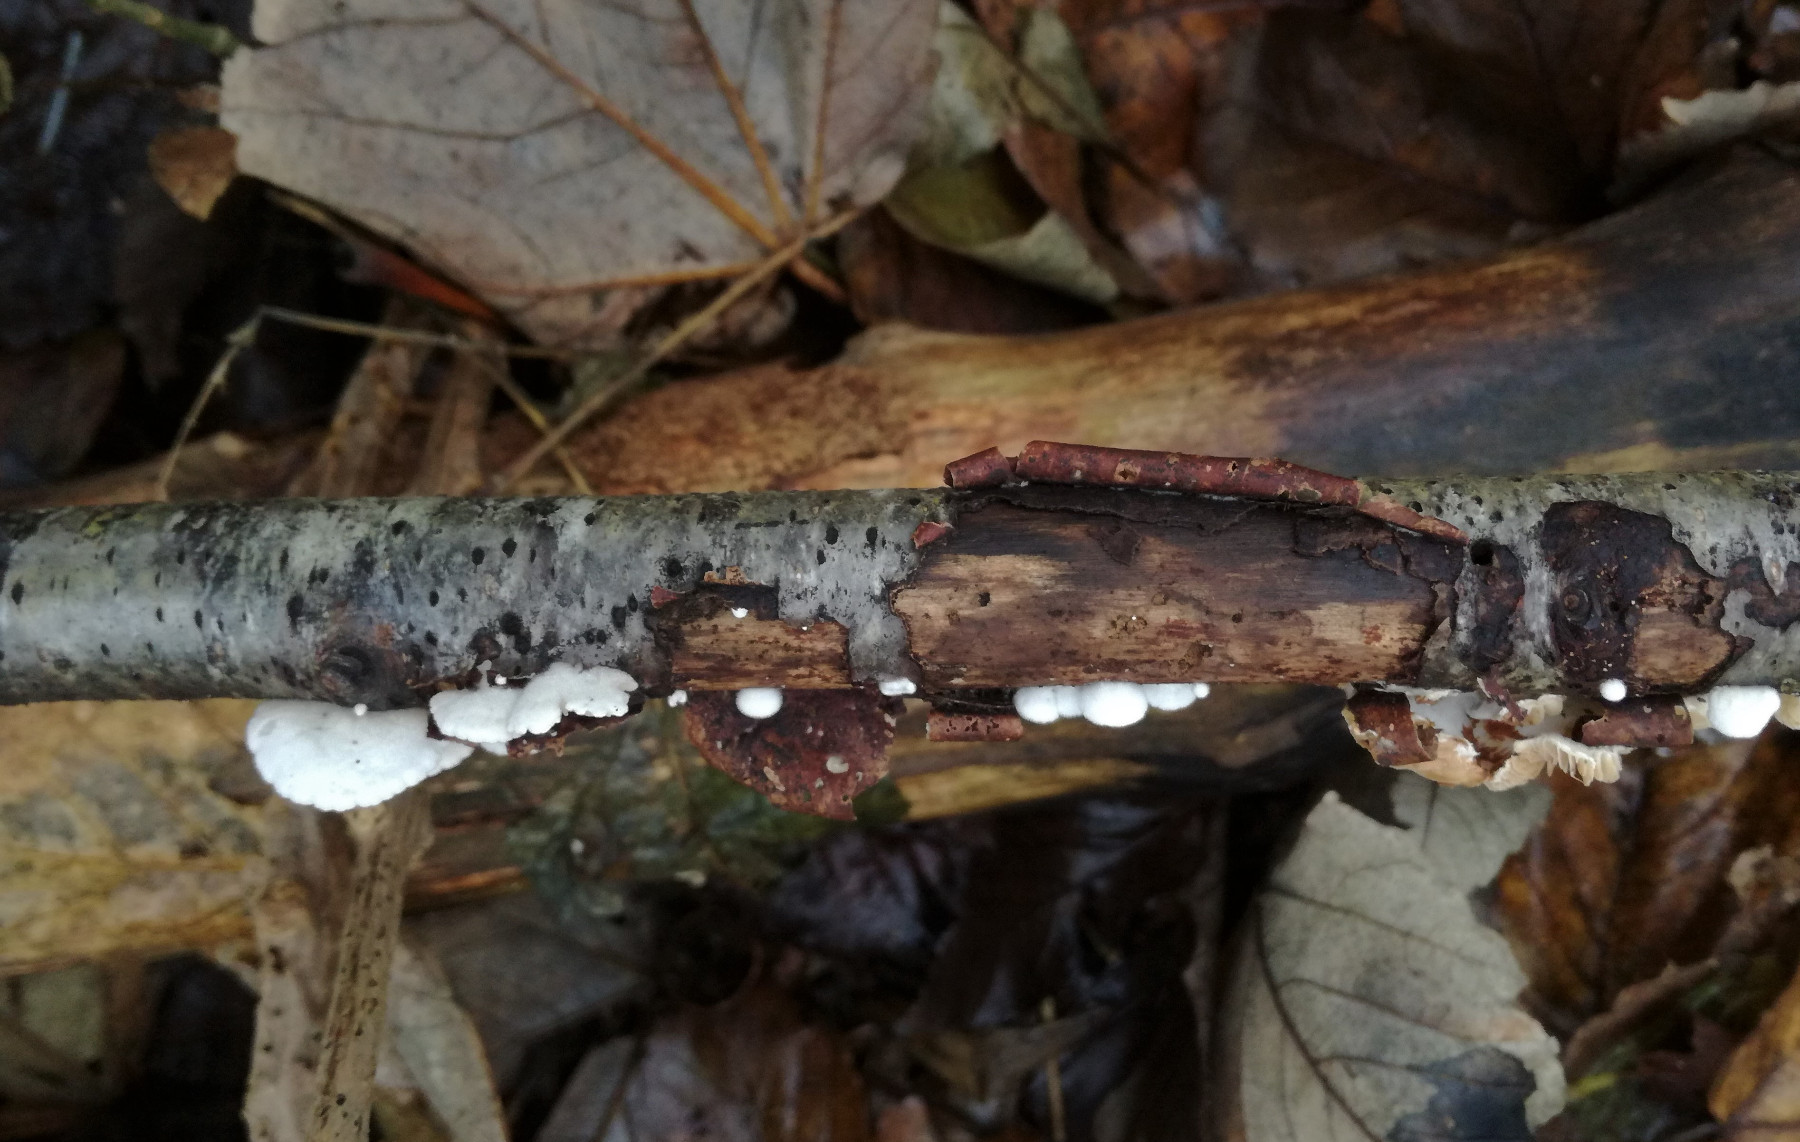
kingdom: Fungi
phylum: Basidiomycota
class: Agaricomycetes
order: Agaricales
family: Crepidotaceae
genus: Crepidotus
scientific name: Crepidotus
